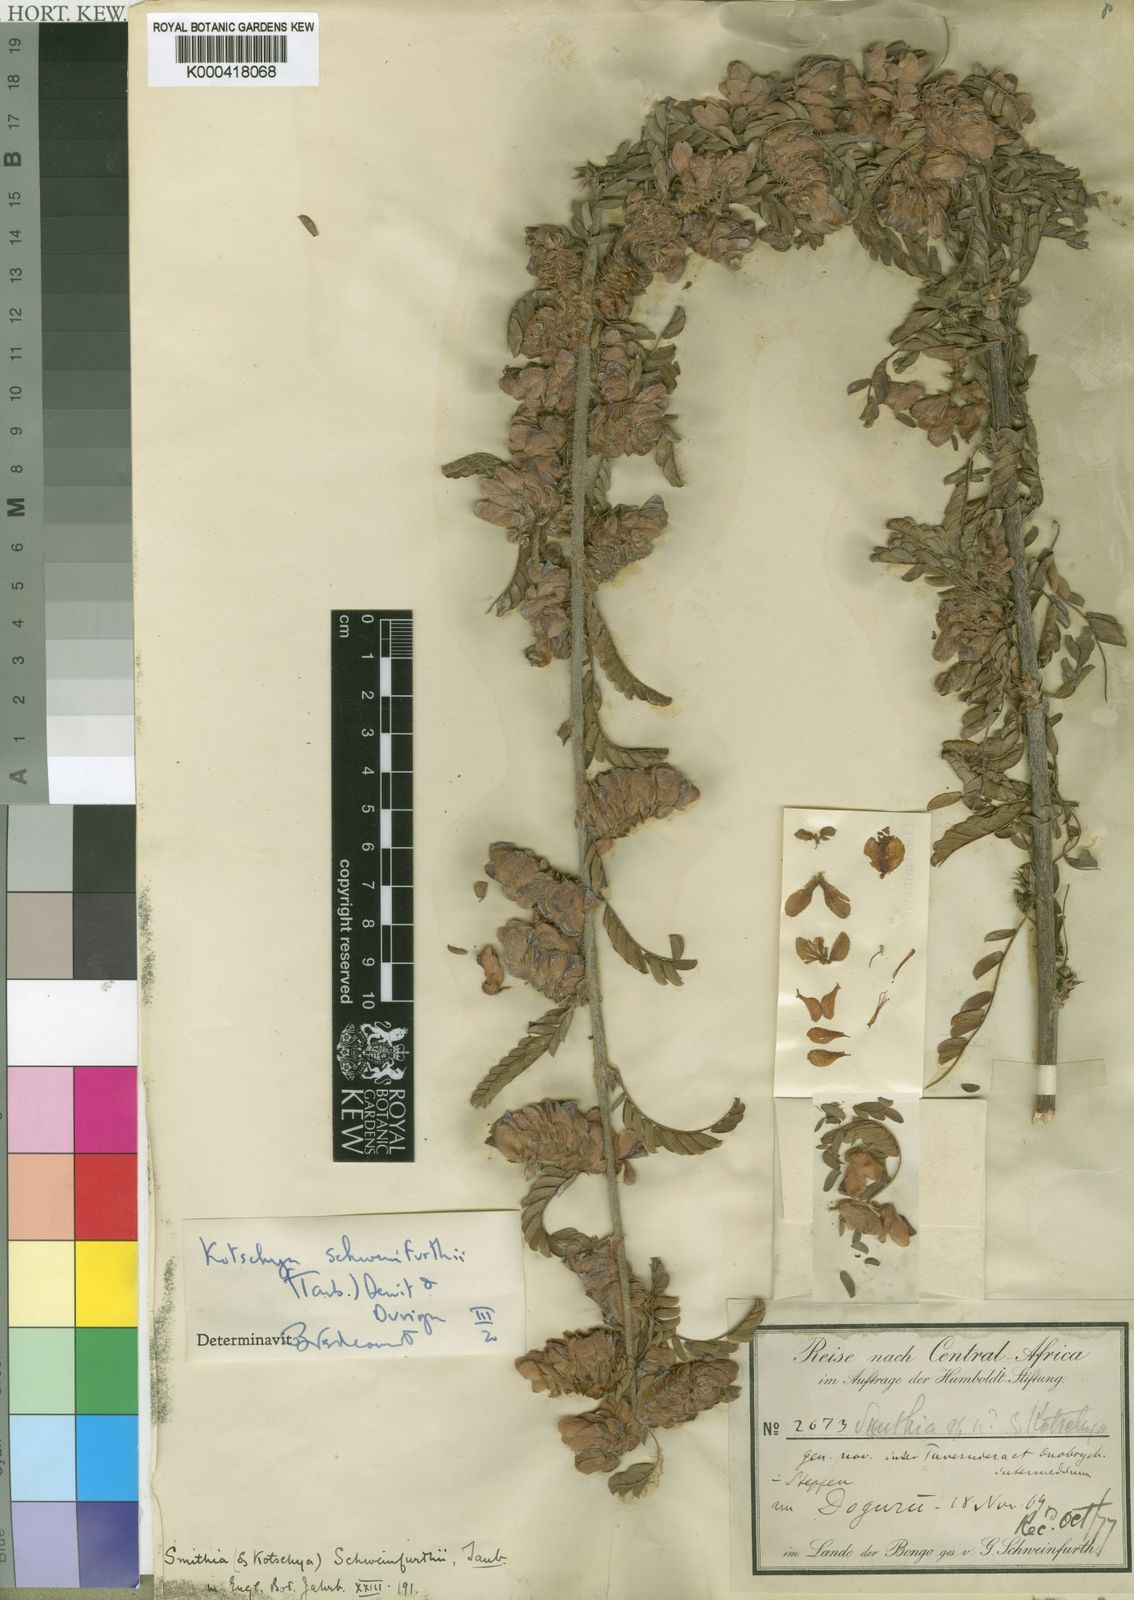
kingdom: Plantae
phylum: Tracheophyta
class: Magnoliopsida
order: Fabales
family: Fabaceae
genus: Kotschya
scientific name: Kotschya schweinfurthii
